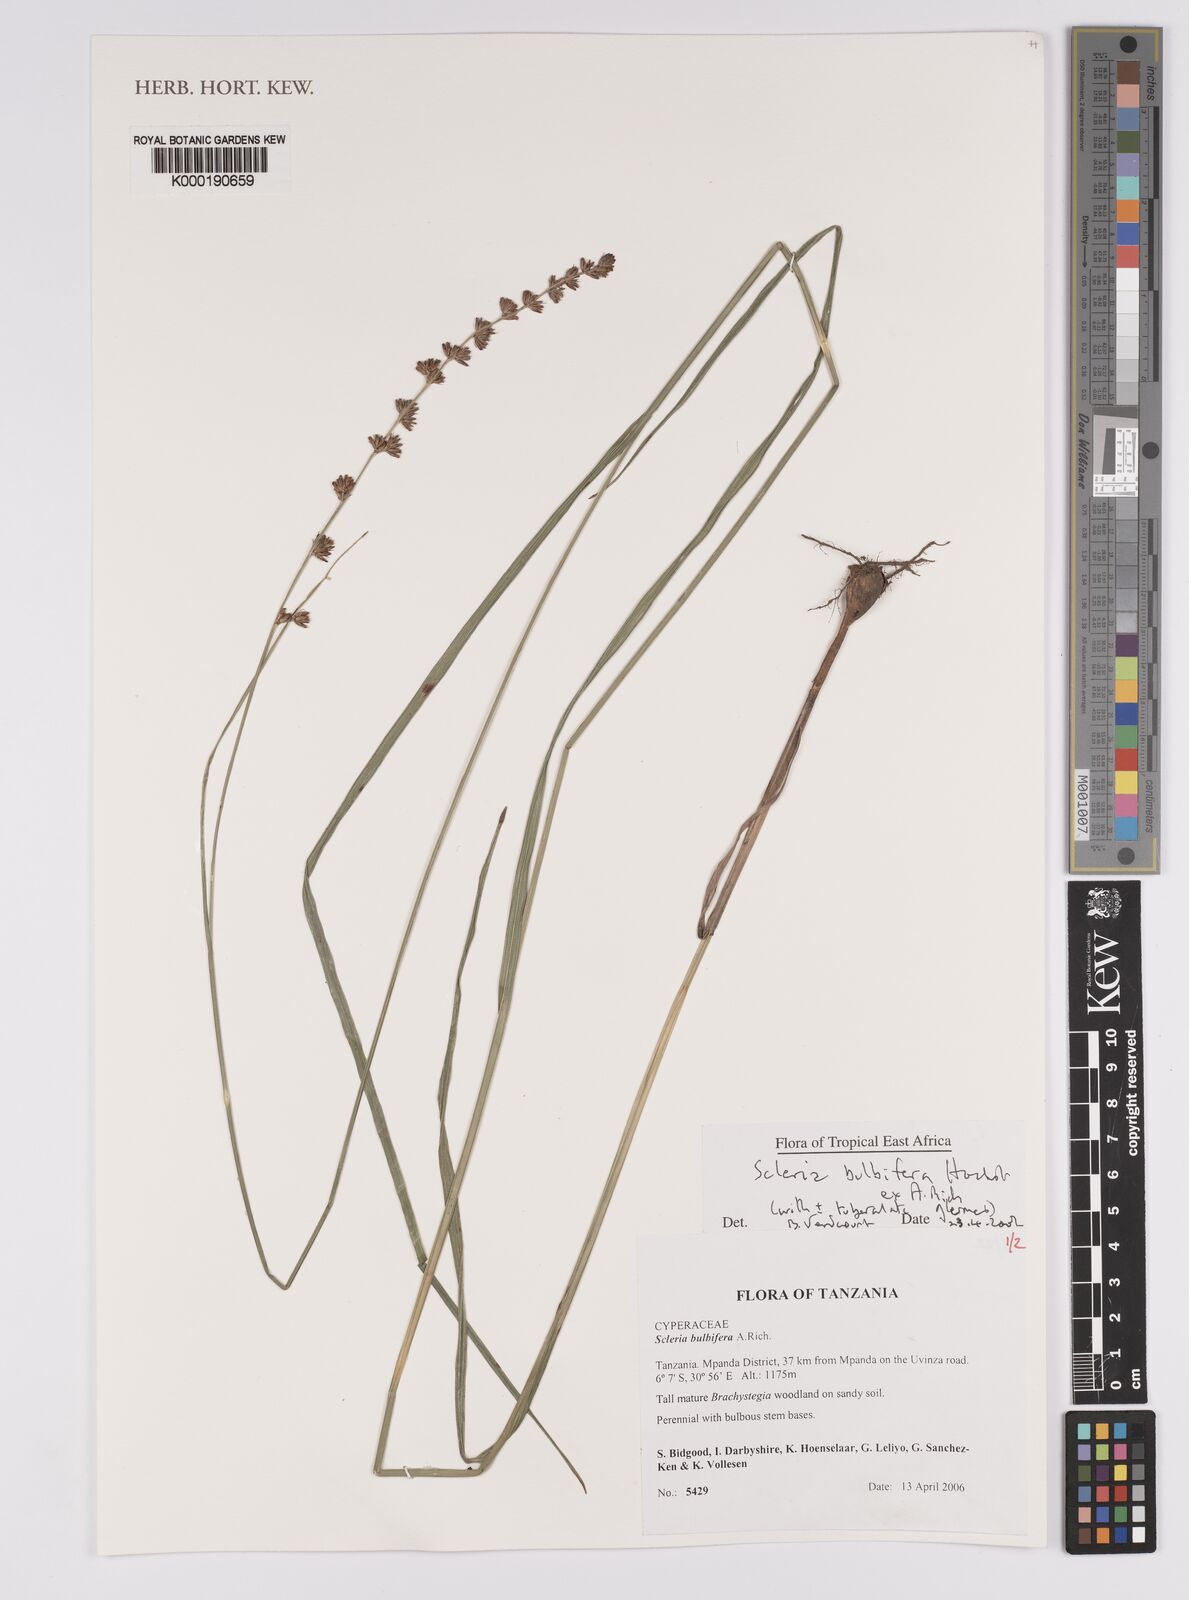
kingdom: Plantae
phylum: Tracheophyta
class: Liliopsida
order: Poales
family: Cyperaceae
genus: Scleria
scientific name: Scleria bulbifera
